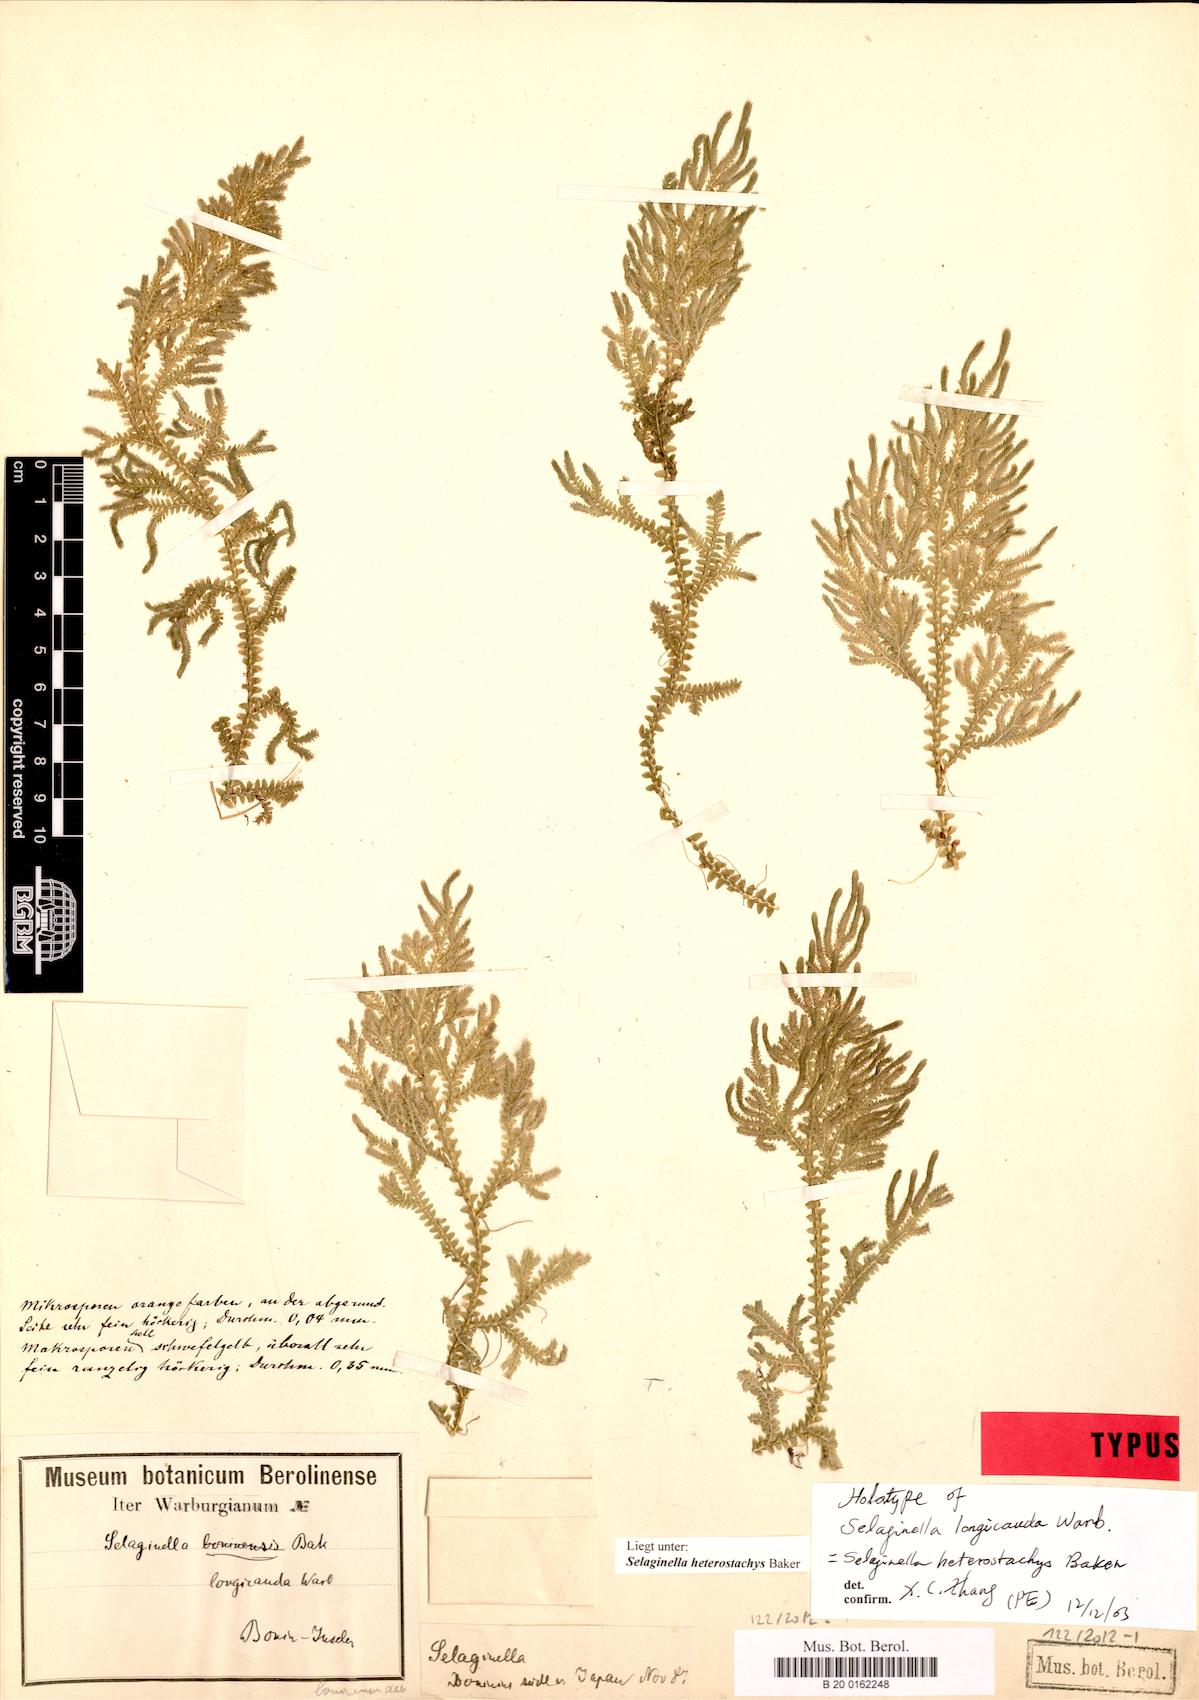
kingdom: Plantae
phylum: Tracheophyta
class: Lycopodiopsida
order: Selaginellales
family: Selaginellaceae
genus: Selaginella
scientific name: Selaginella heterostachys
